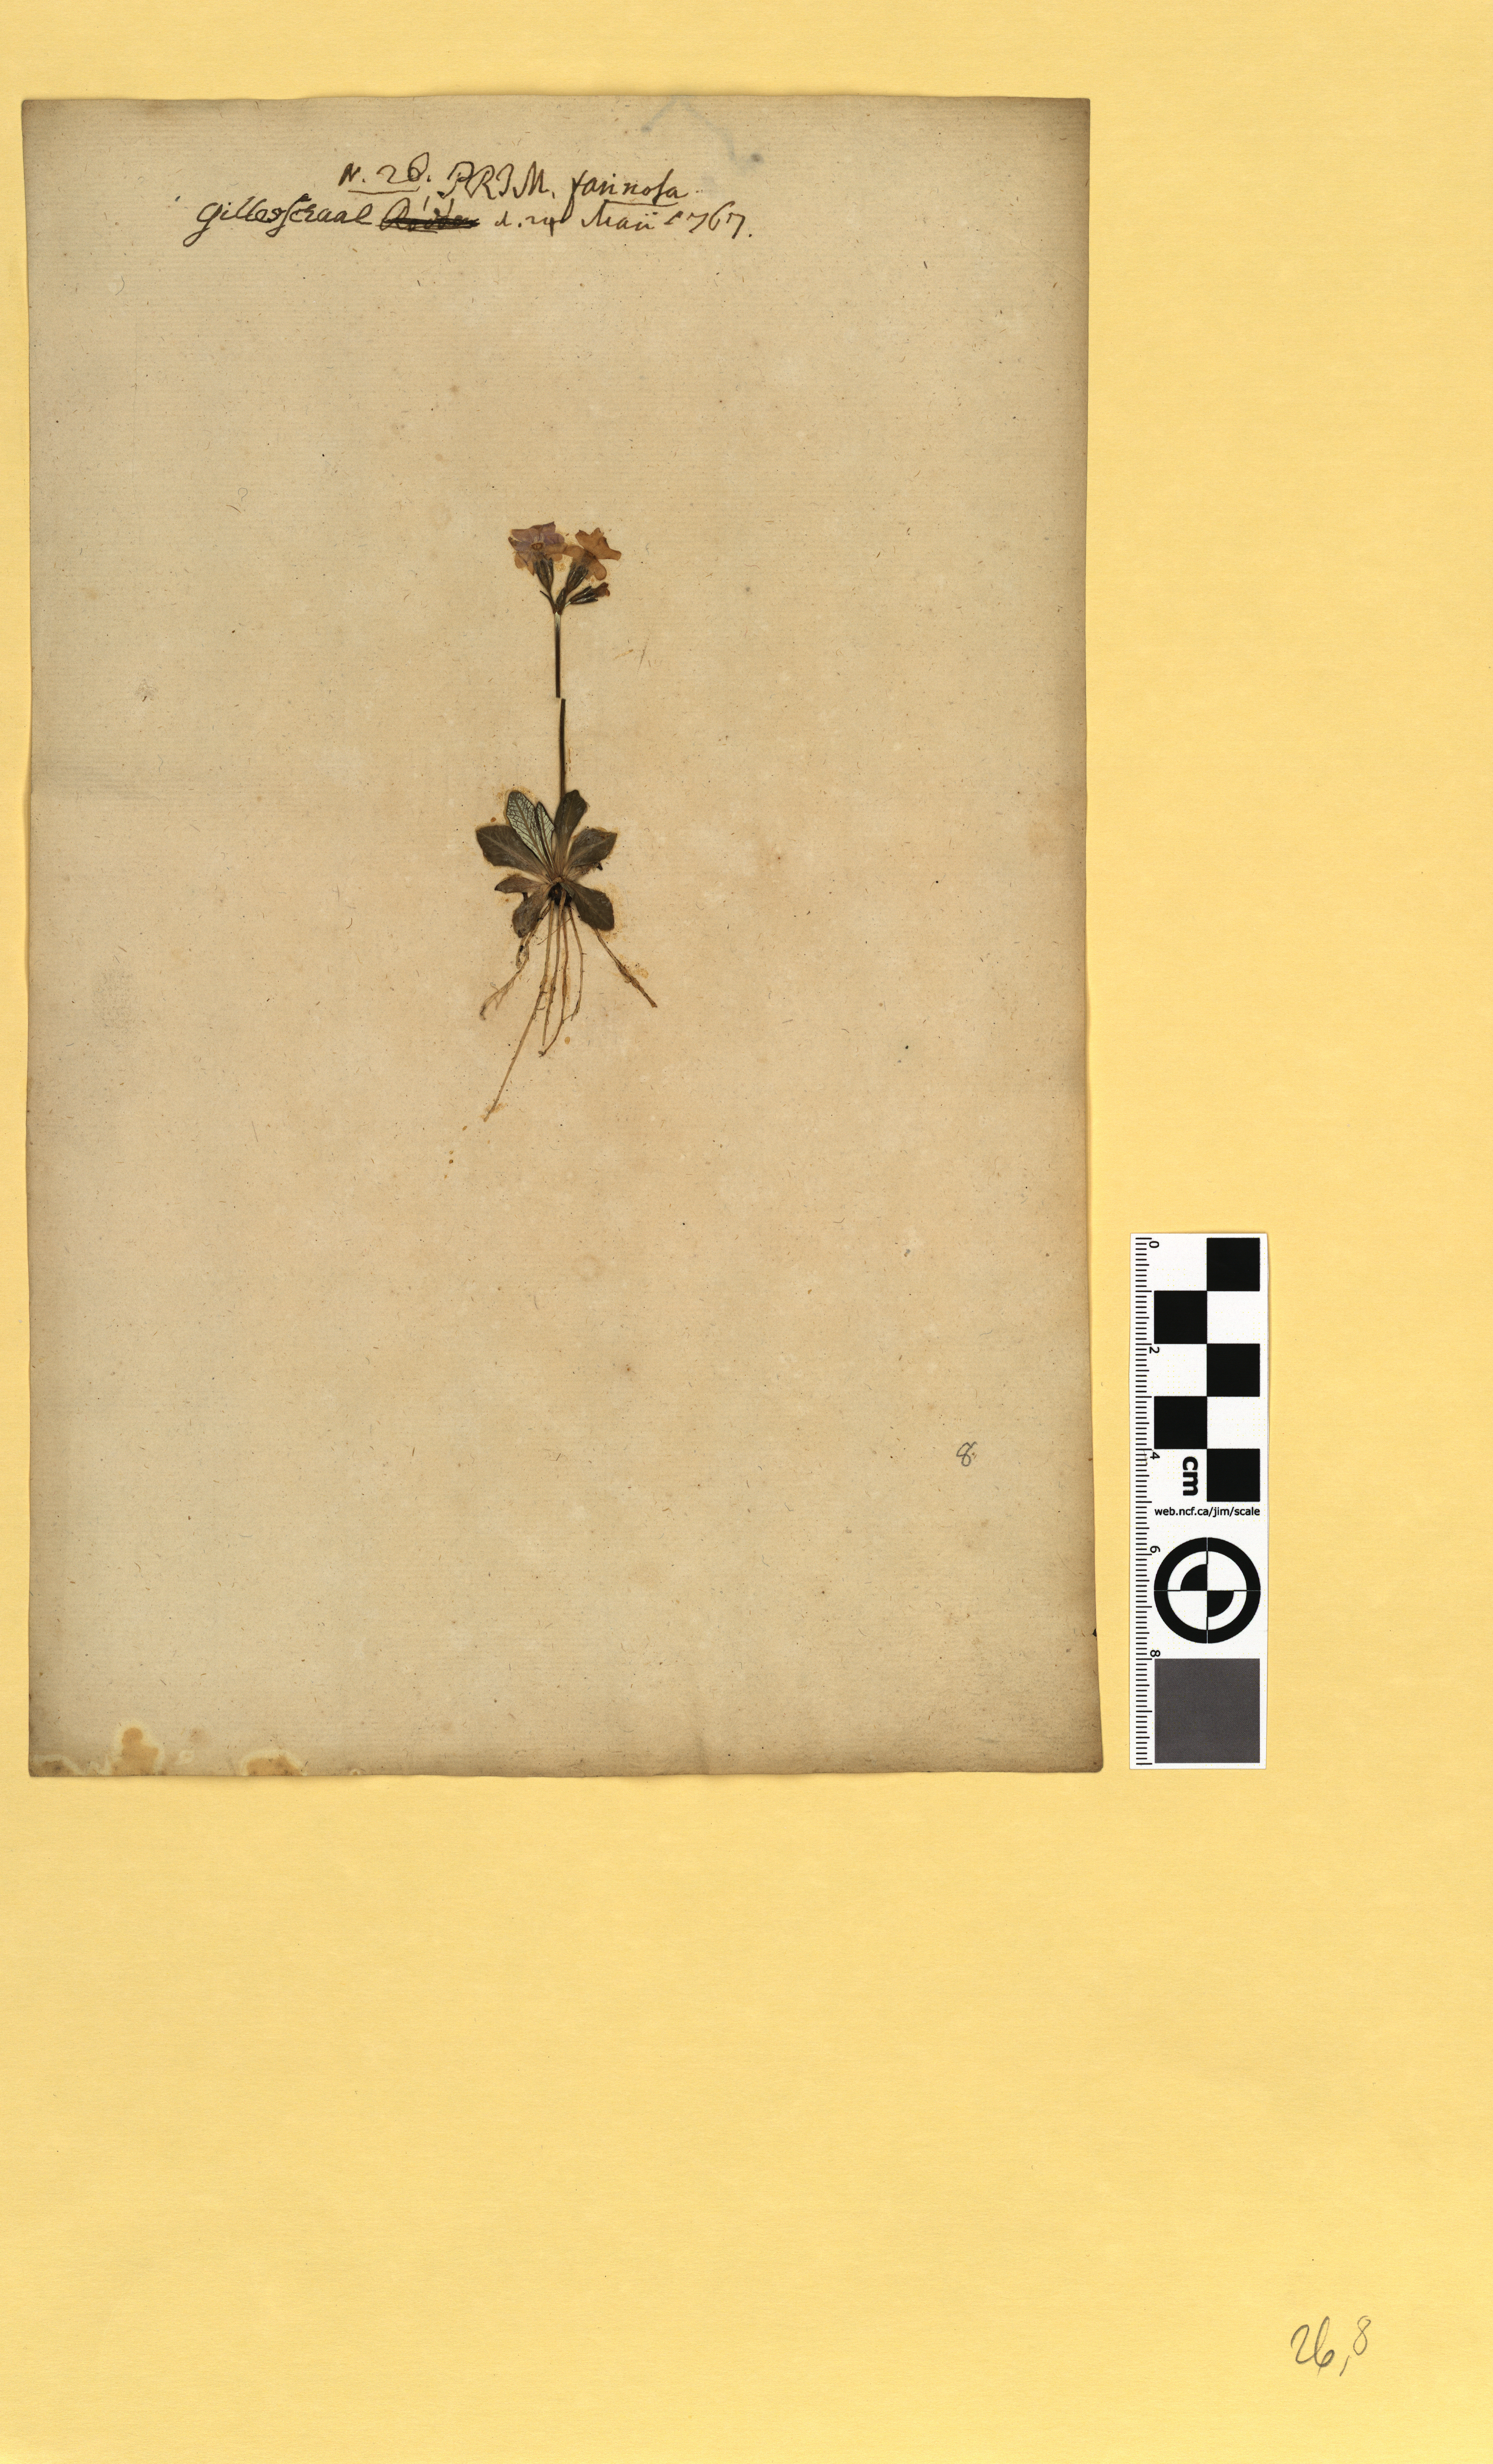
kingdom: Plantae
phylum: Tracheophyta
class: Magnoliopsida
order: Ericales
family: Primulaceae
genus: Primula
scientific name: Primula scandinavica
